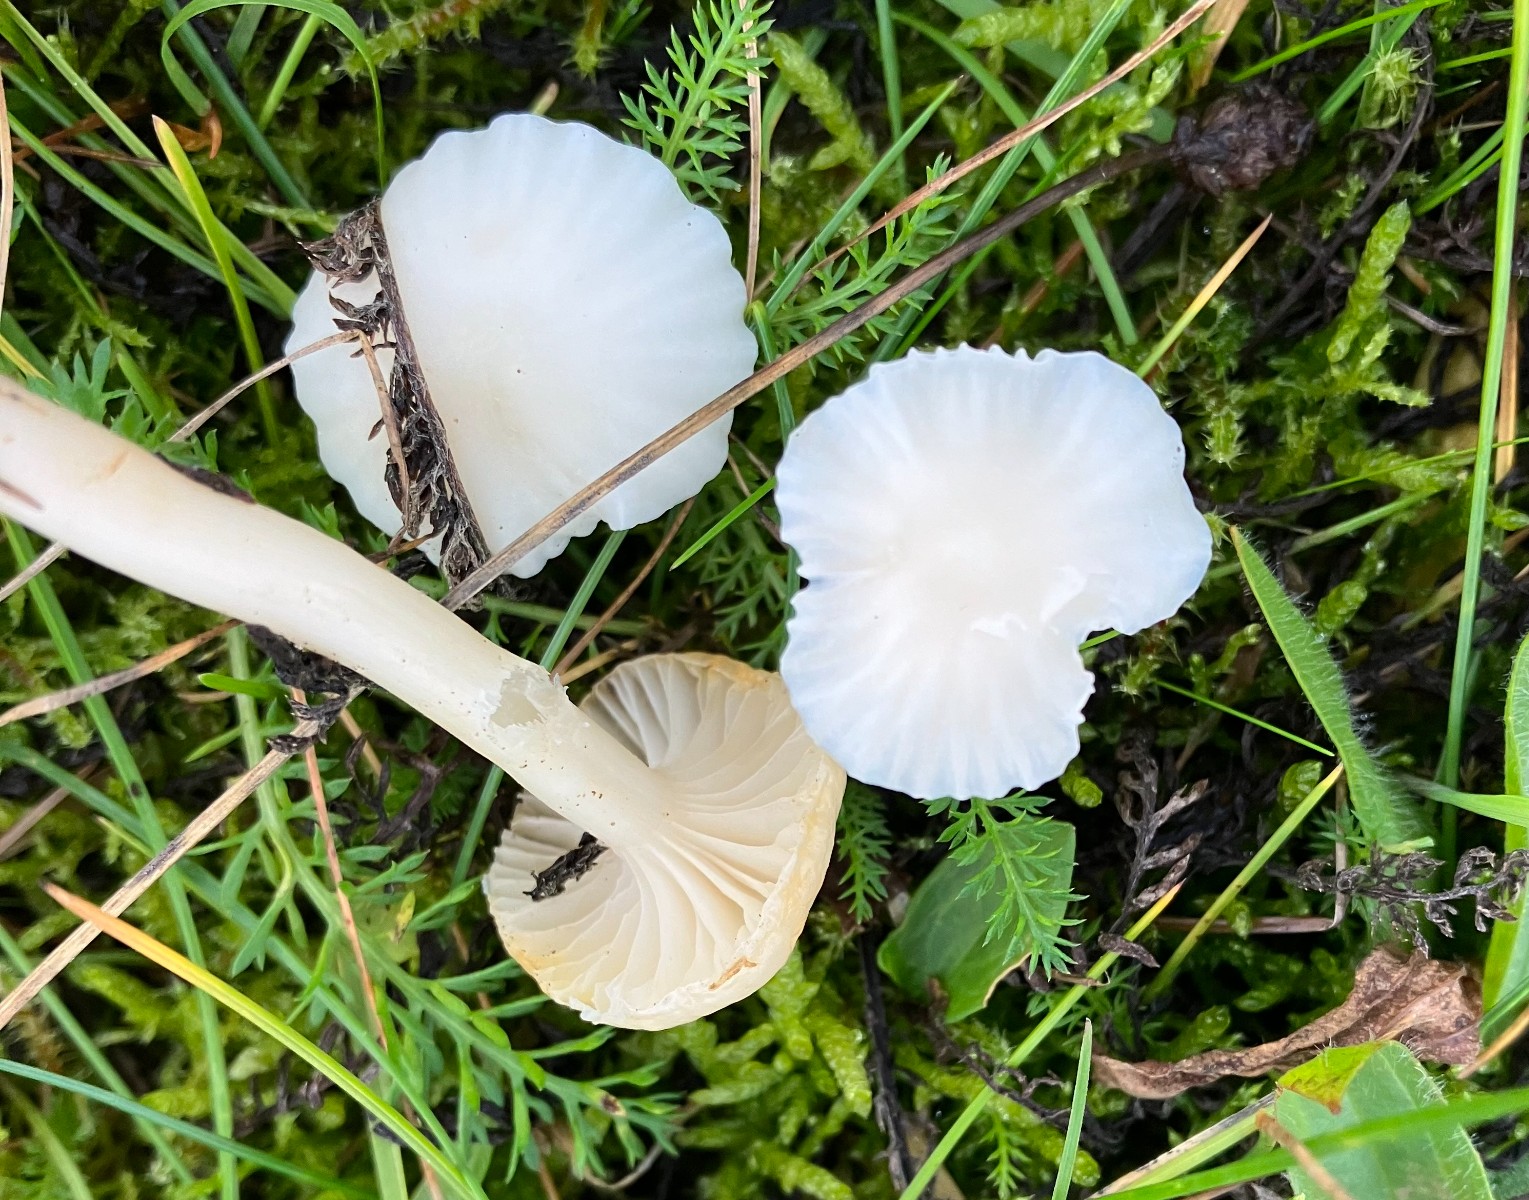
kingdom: Fungi
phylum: Basidiomycota
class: Agaricomycetes
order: Agaricales
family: Hygrophoraceae
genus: Cuphophyllus
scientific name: Cuphophyllus virgineus
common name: snehvid vokshat
